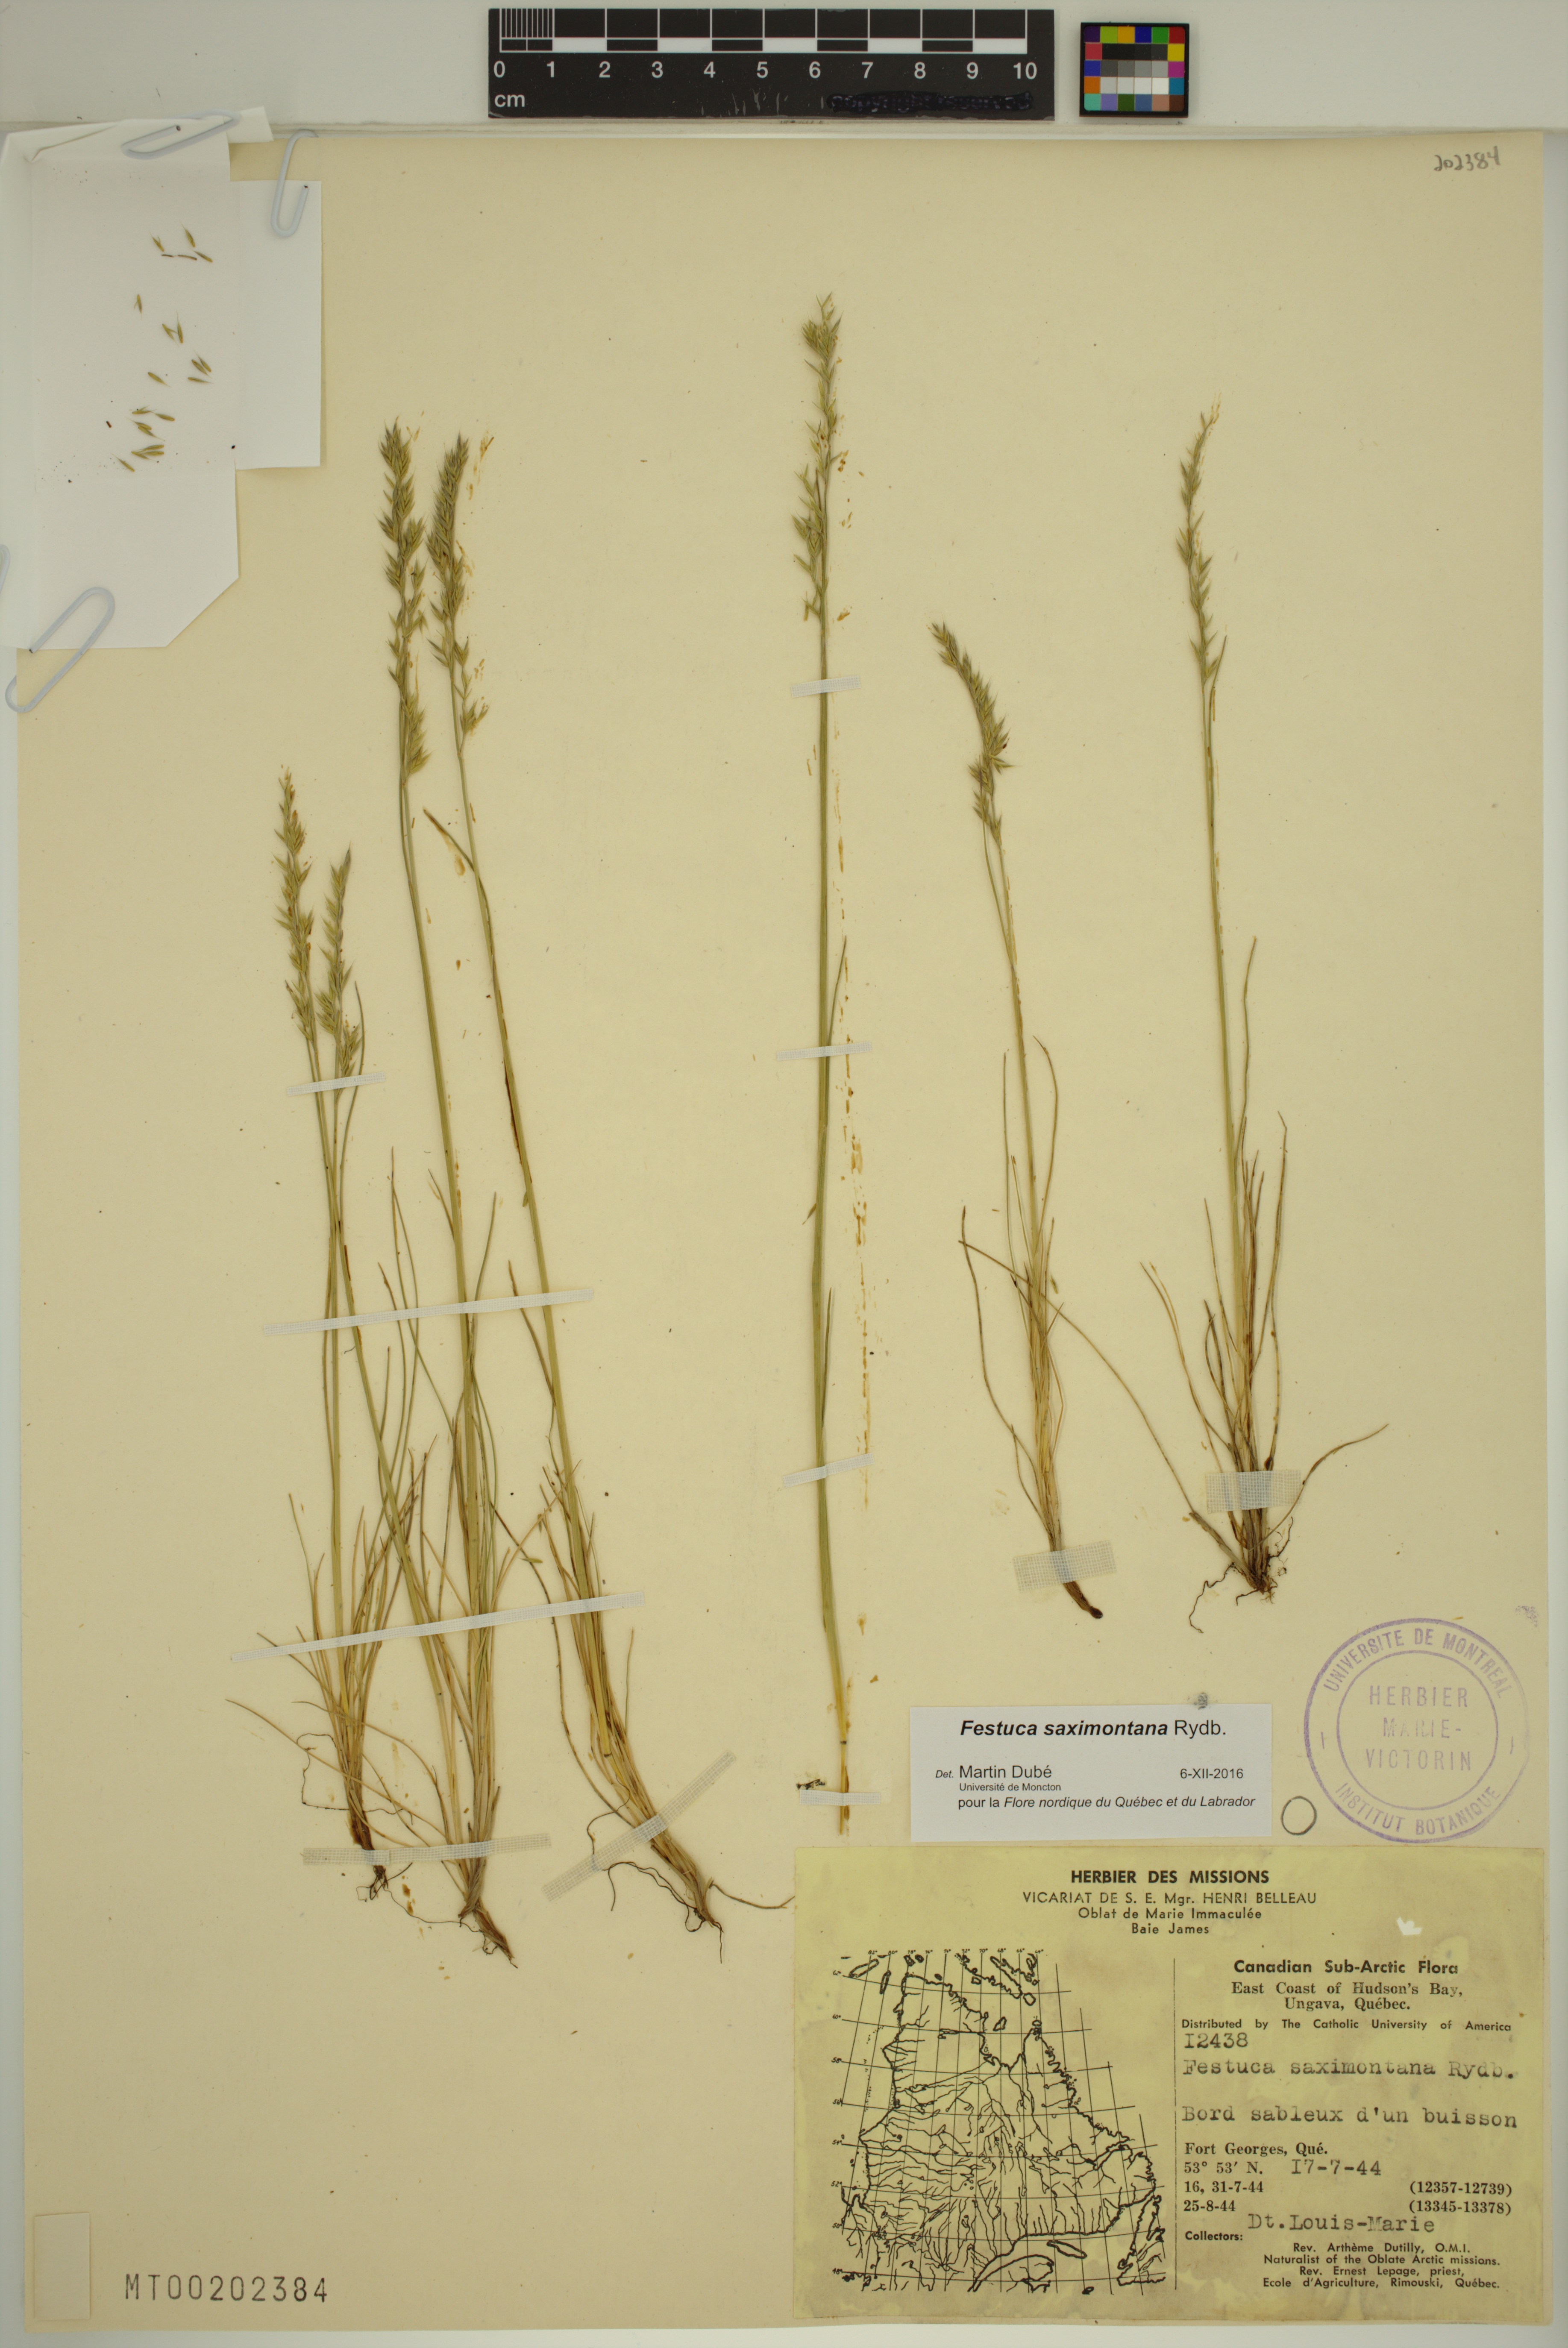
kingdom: Plantae
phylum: Tracheophyta
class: Liliopsida
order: Poales
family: Poaceae
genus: Festuca
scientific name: Festuca saximontana
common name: Mountain fescue
